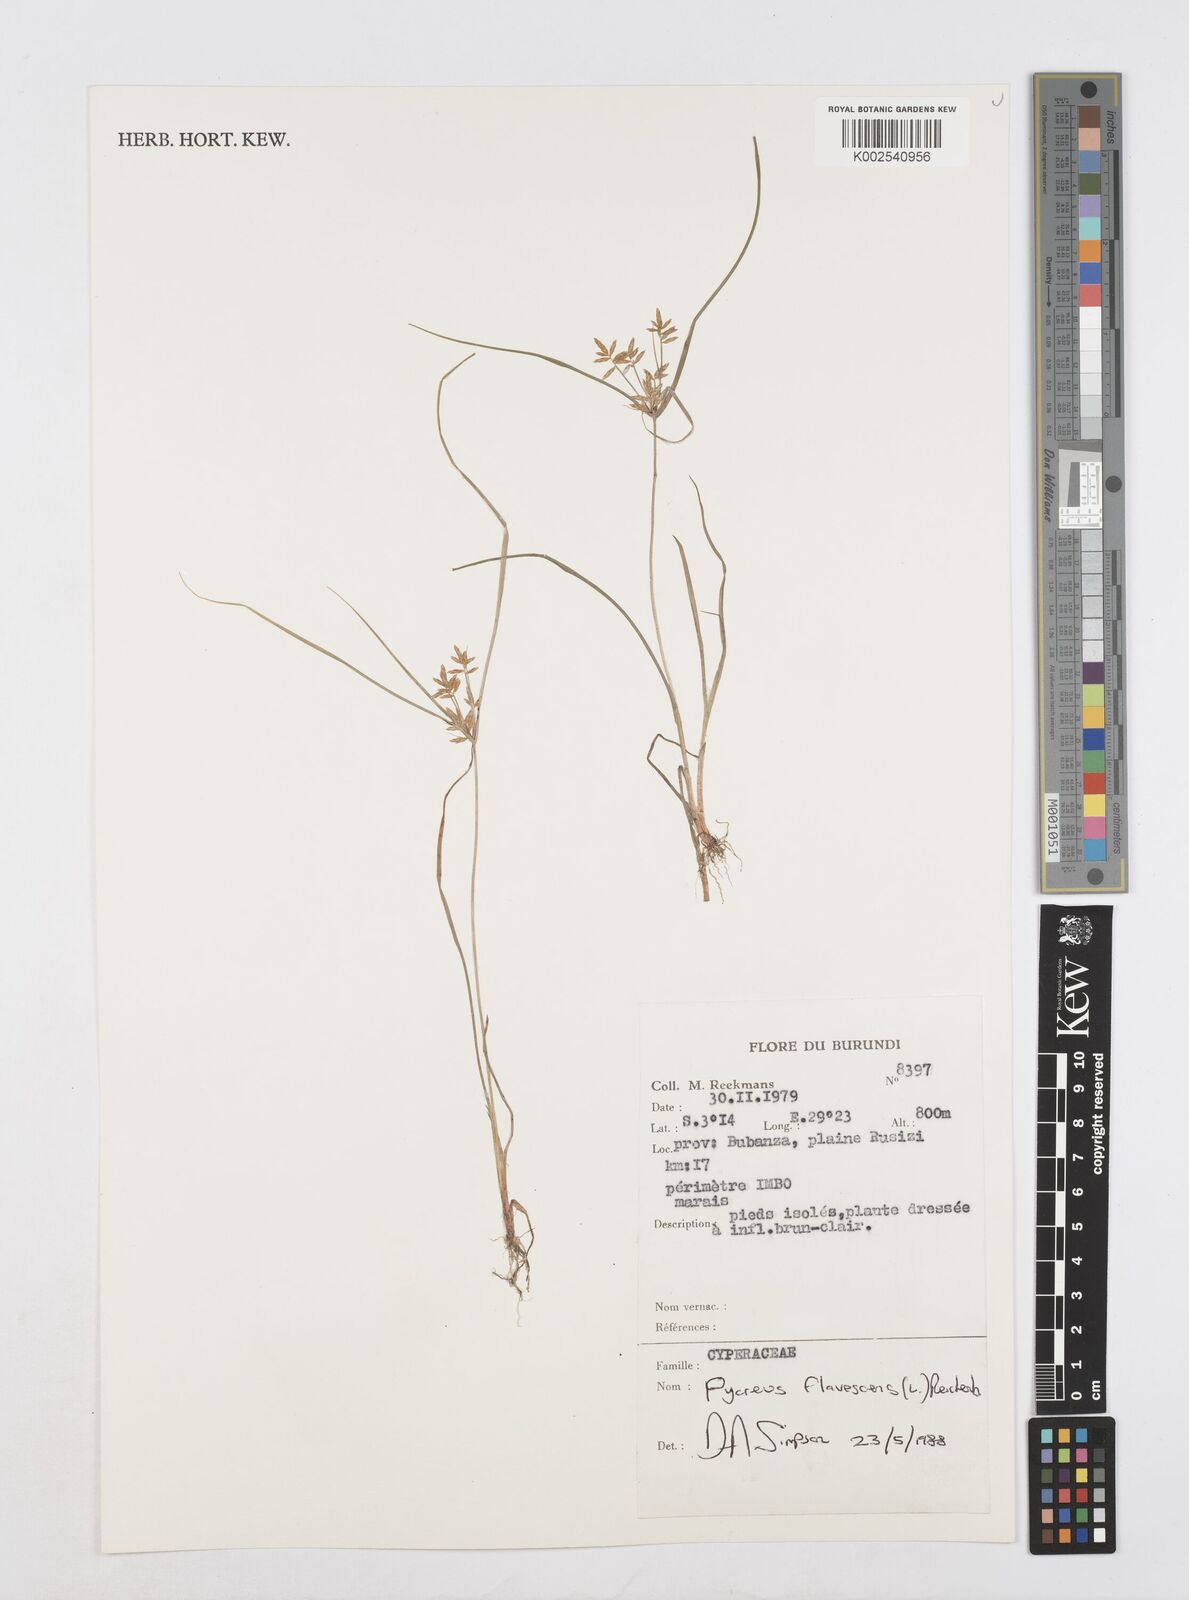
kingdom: Plantae
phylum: Tracheophyta
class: Liliopsida
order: Poales
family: Cyperaceae
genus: Cyperus
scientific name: Cyperus flavescens
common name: Yellow galingale
